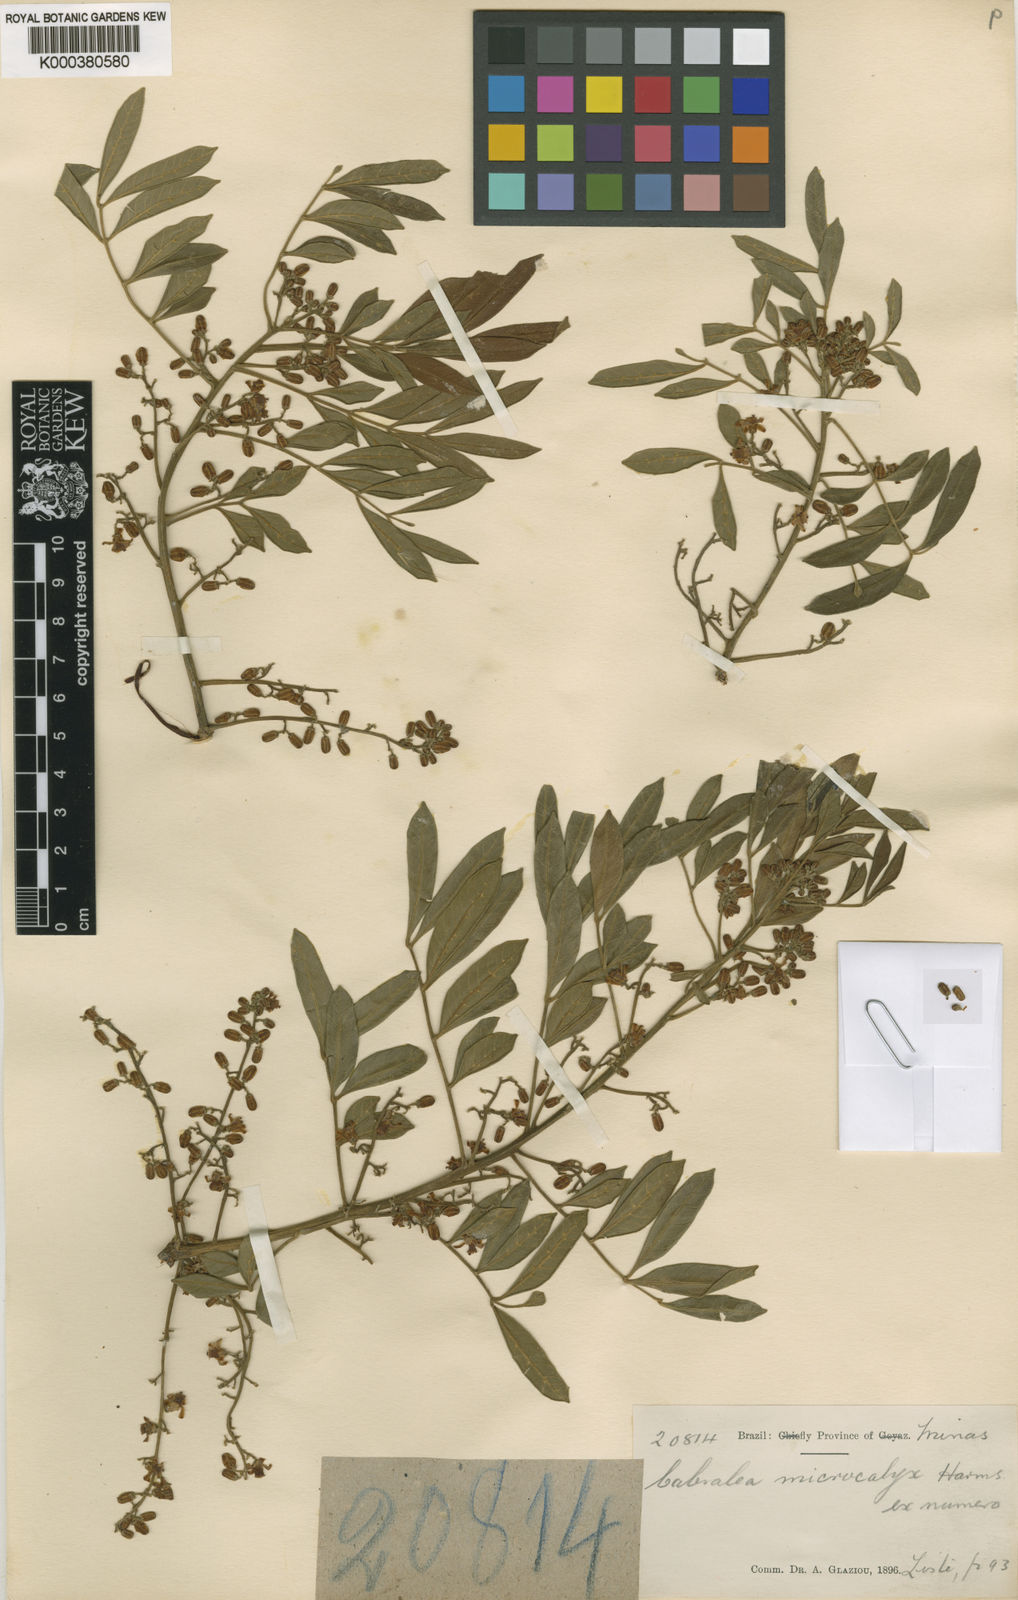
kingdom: Plantae
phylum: Tracheophyta
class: Magnoliopsida
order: Sapindales
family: Meliaceae
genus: Cabralea
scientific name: Cabralea canjerana
